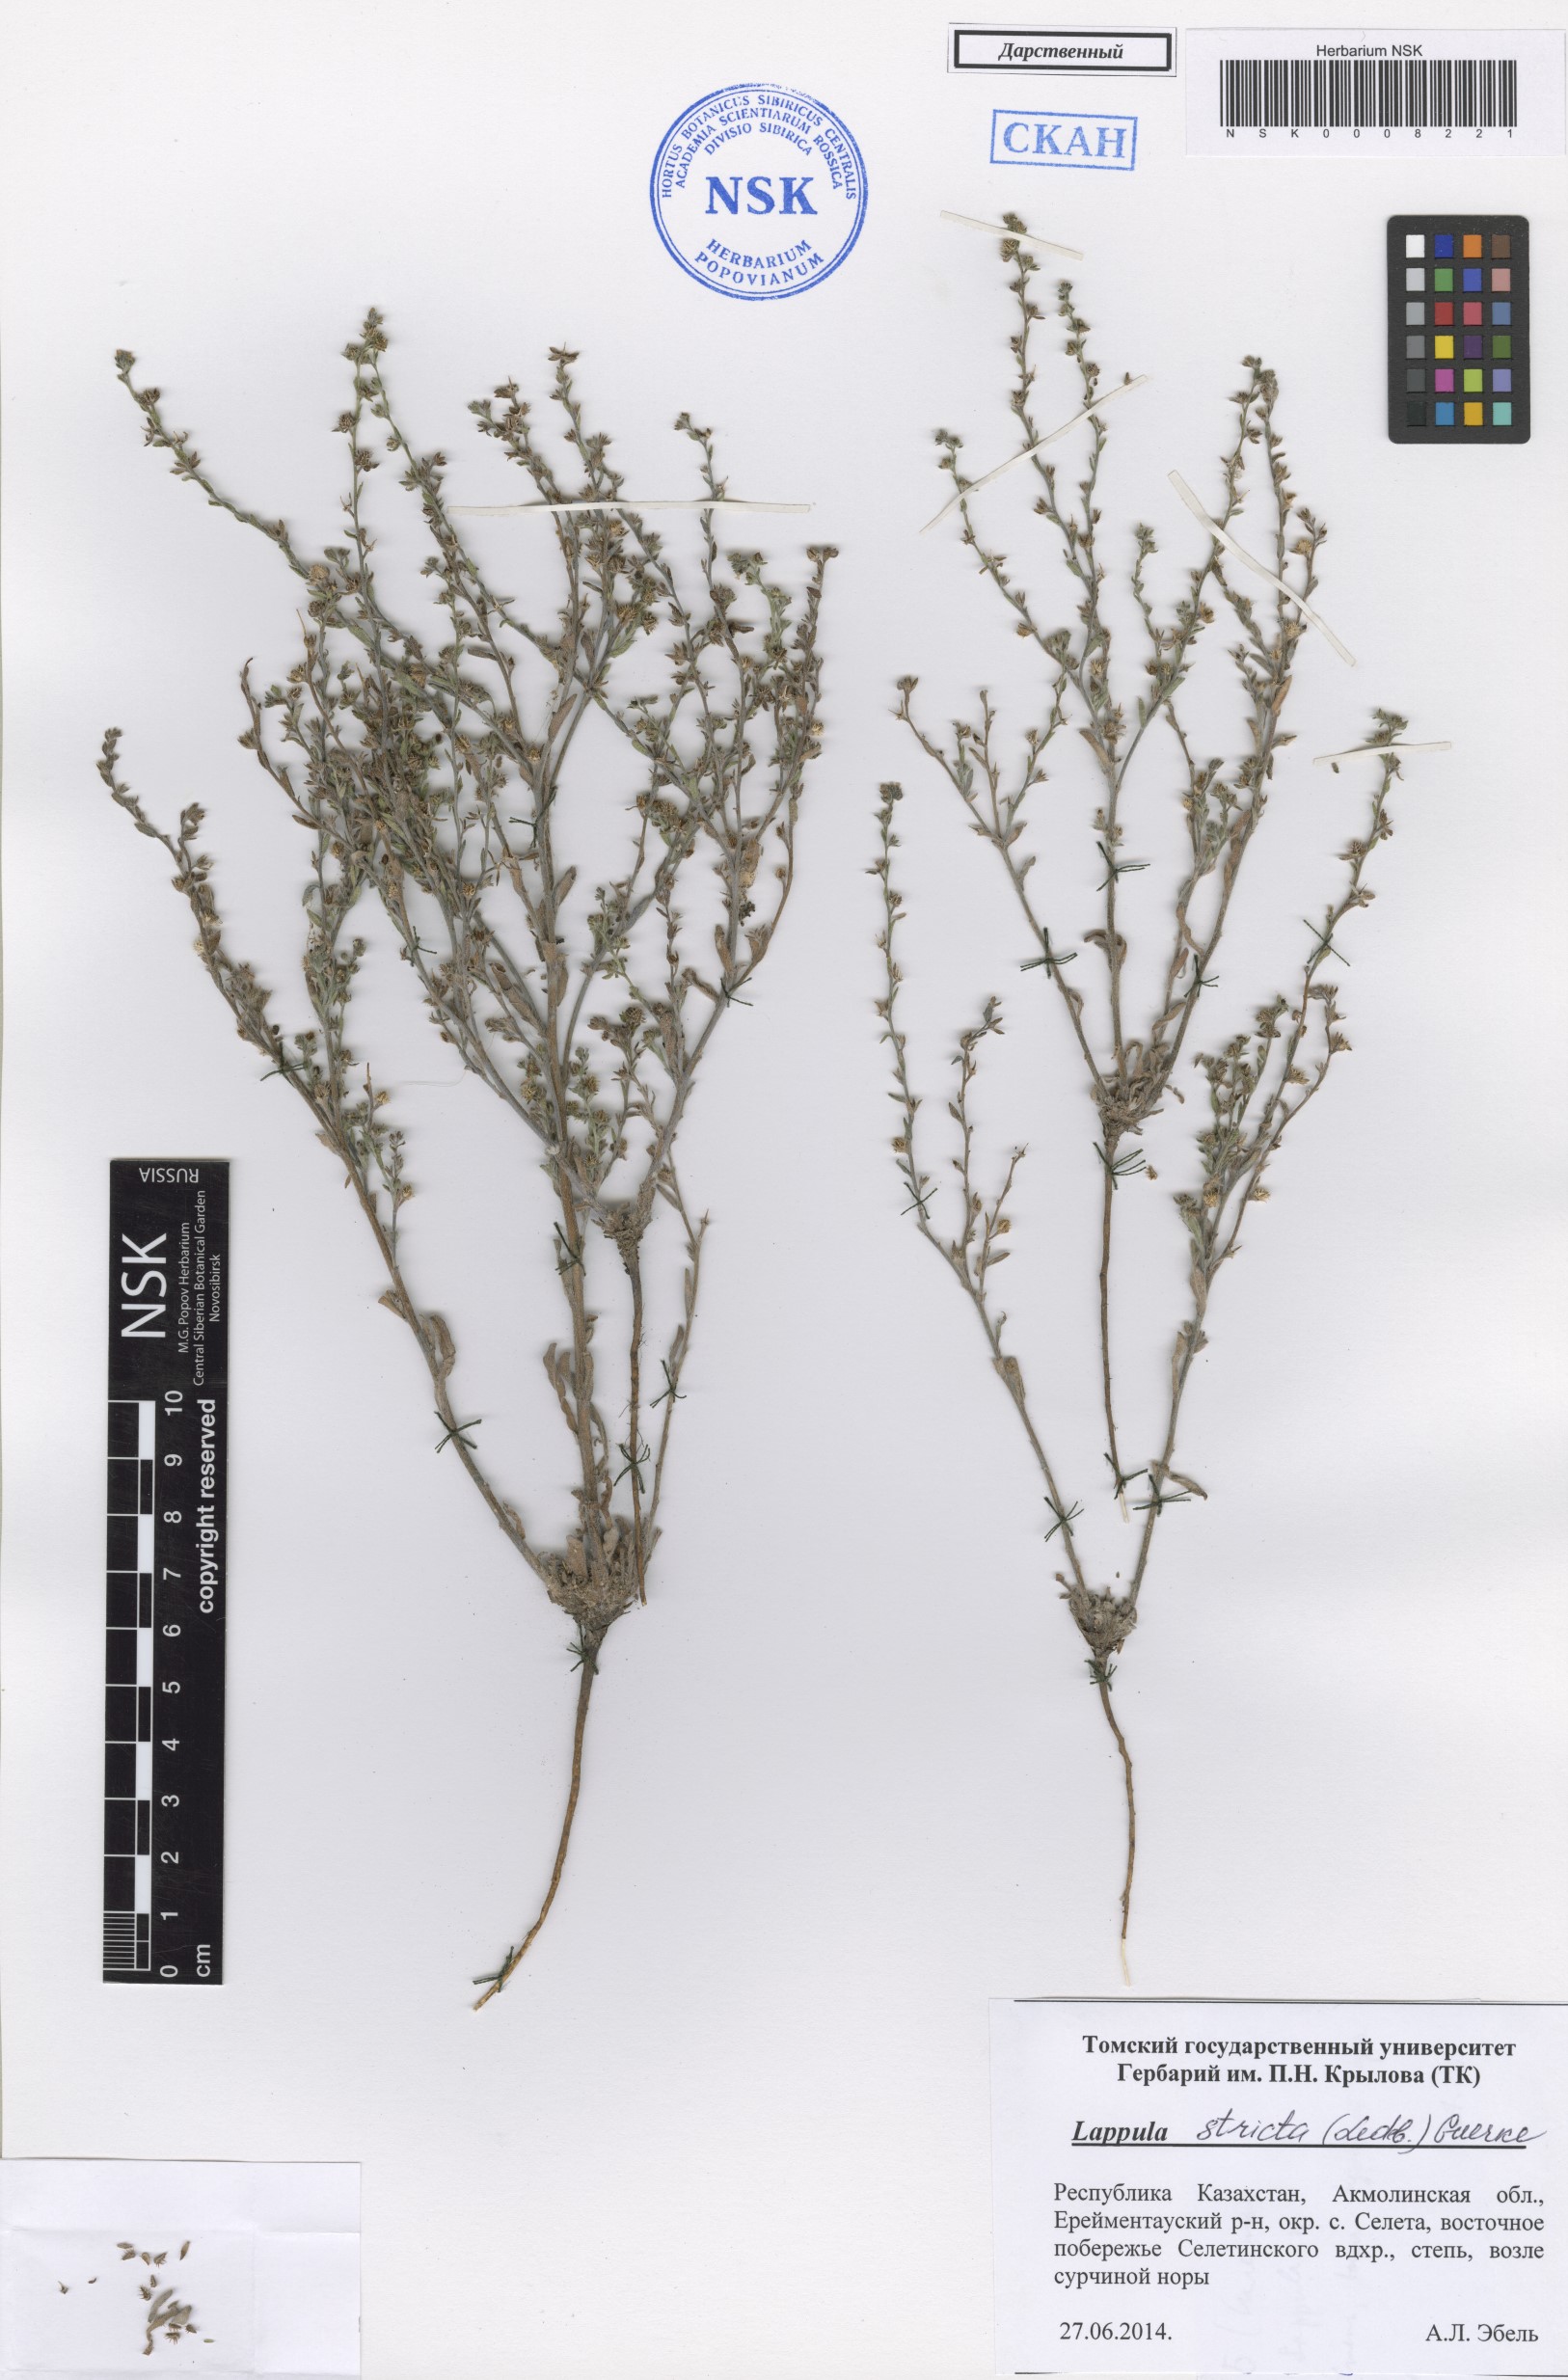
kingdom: Plantae
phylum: Tracheophyta
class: Magnoliopsida
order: Boraginales
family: Boraginaceae
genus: Lappula
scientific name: Lappula stricta
